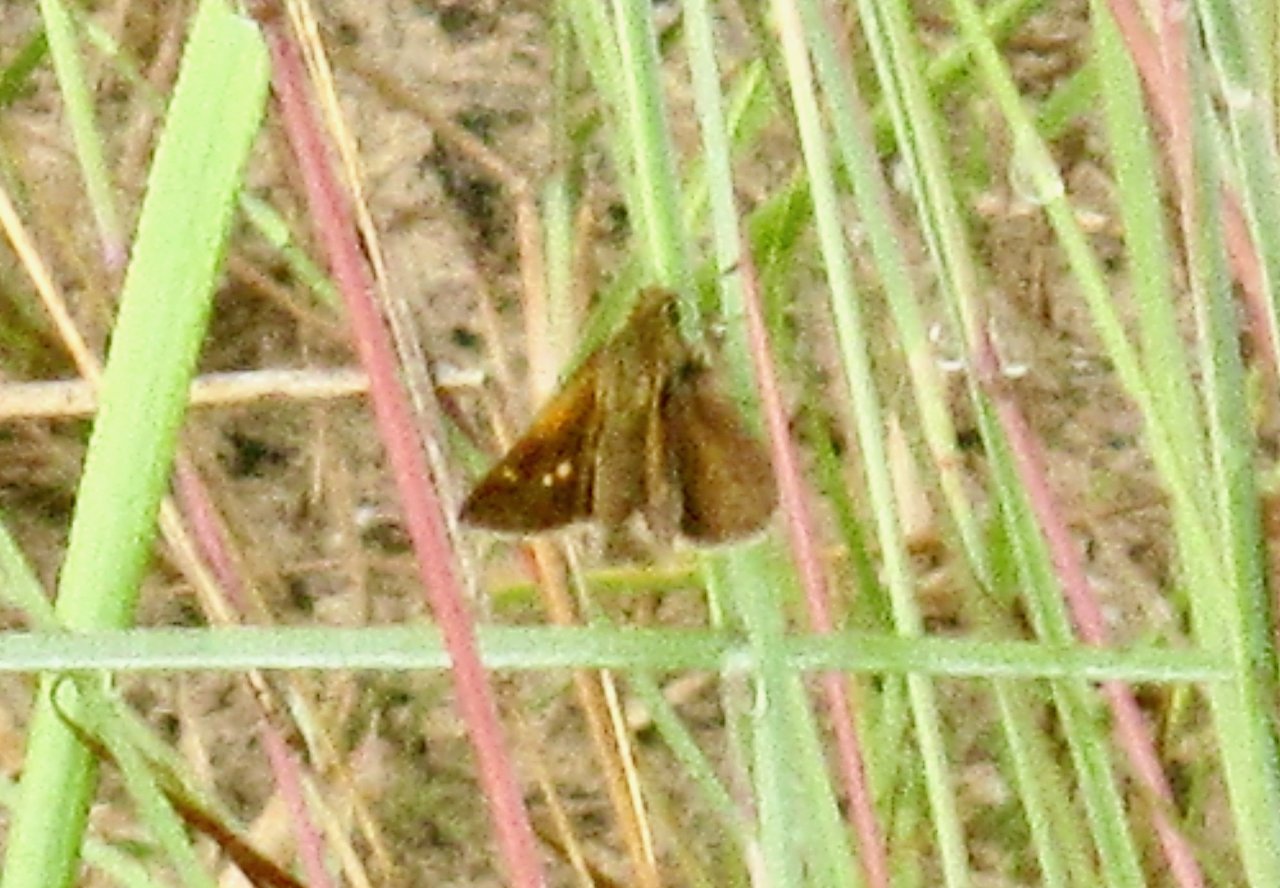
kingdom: Animalia
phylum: Arthropoda
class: Insecta
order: Lepidoptera
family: Hesperiidae
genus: Polites
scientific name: Polites themistocles
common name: Tawny-edged Skipper
